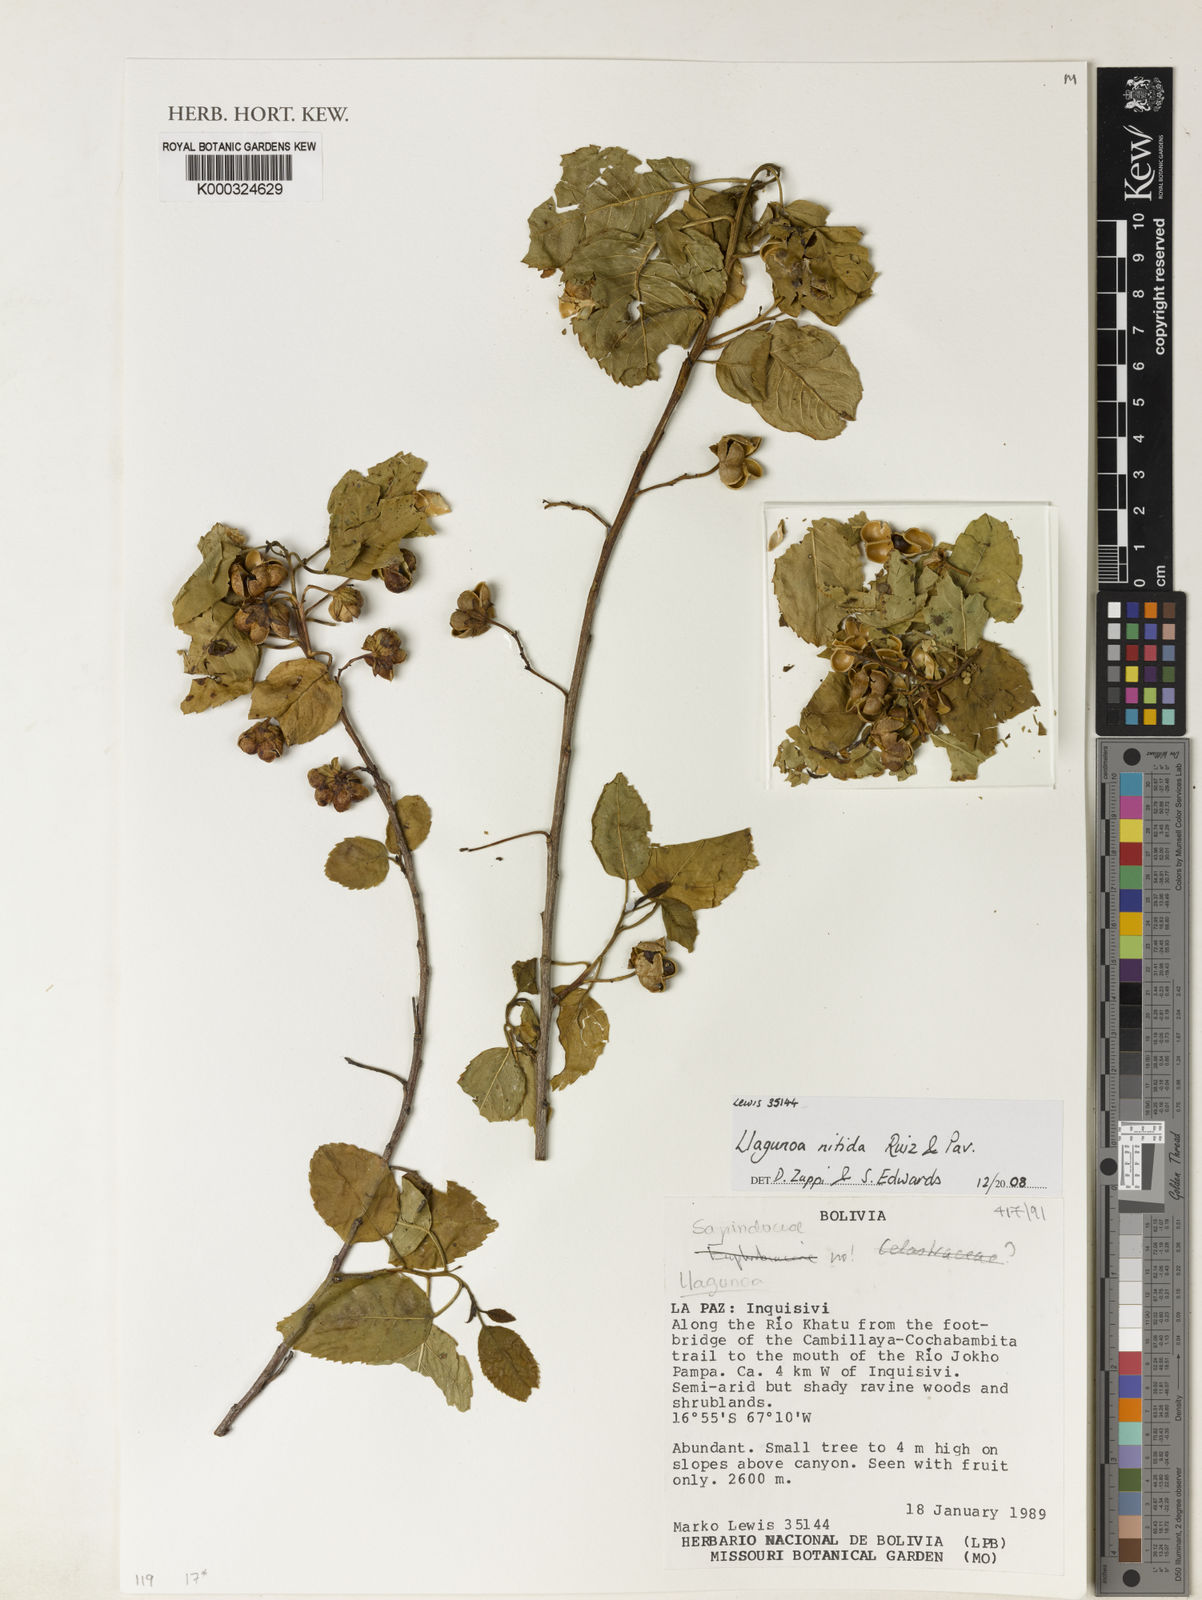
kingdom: Plantae
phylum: Tracheophyta
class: Magnoliopsida
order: Sapindales
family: Sapindaceae
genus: Llagunoa
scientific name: Llagunoa nitida
